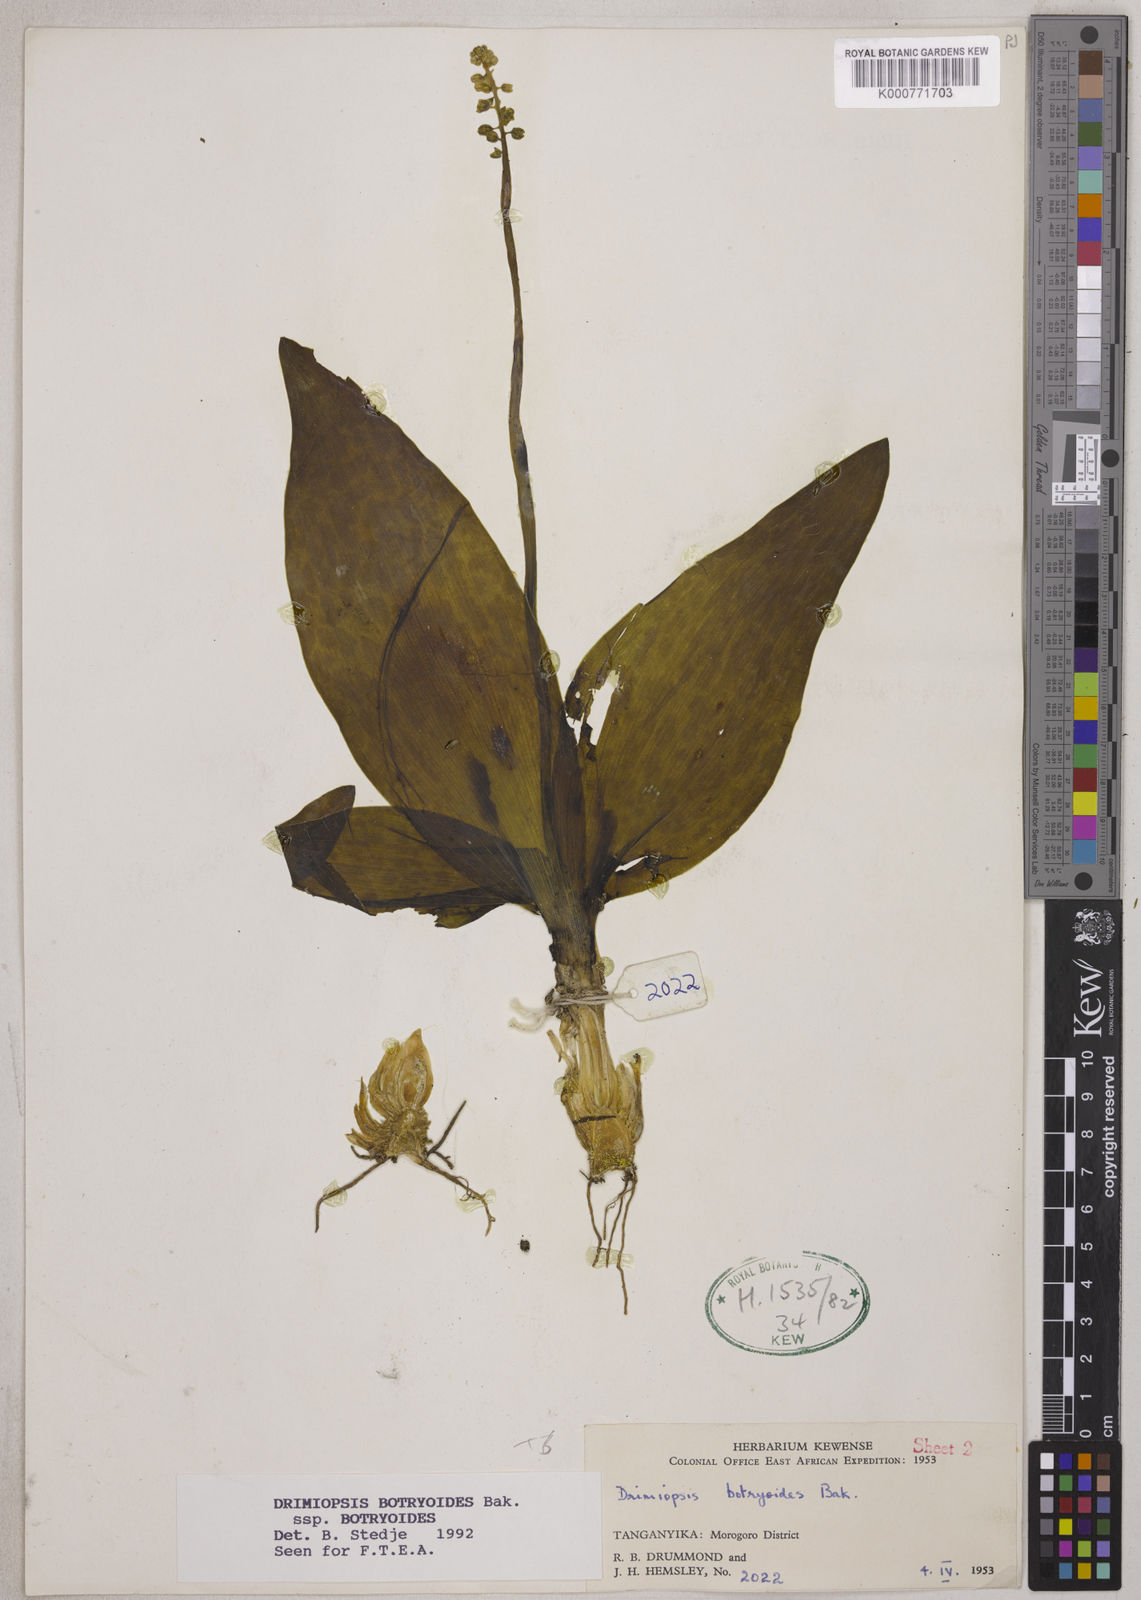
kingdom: Plantae
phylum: Tracheophyta
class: Liliopsida
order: Asparagales
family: Asparagaceae
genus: Drimiopsis
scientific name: Drimiopsis botryoides
